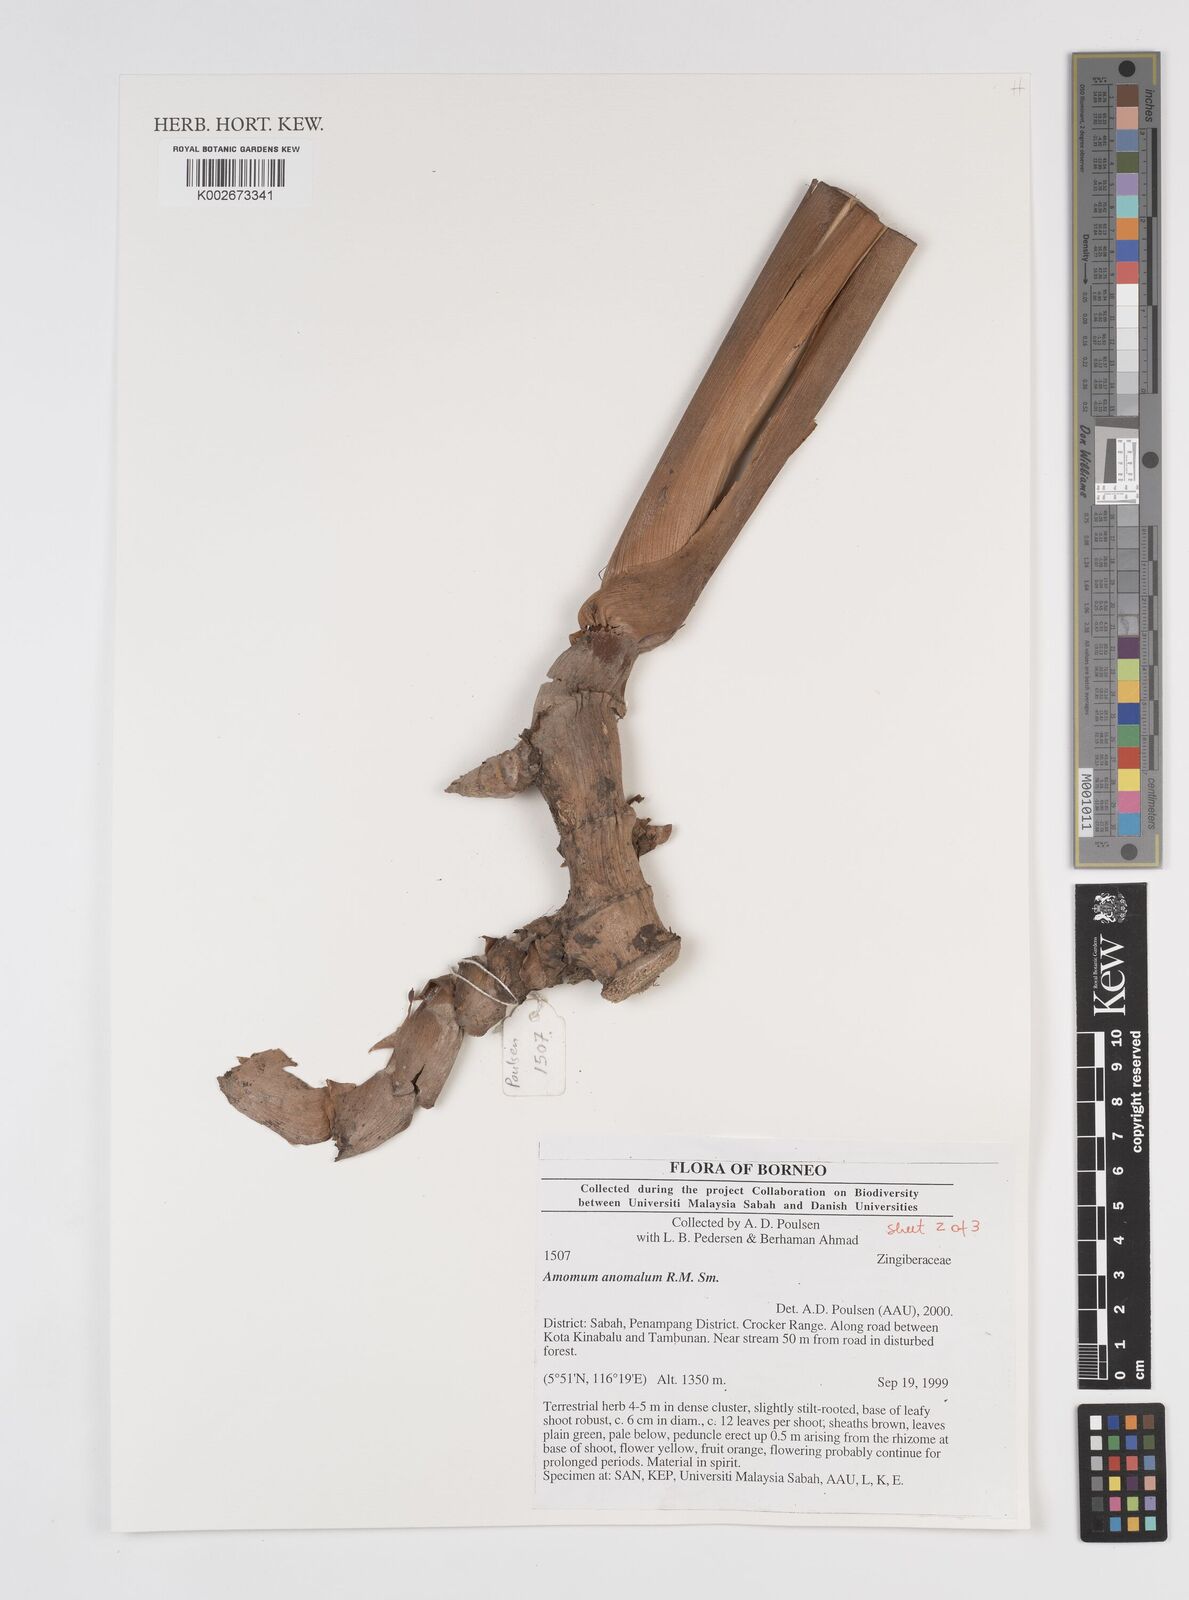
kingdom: Plantae
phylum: Tracheophyta
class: Liliopsida
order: Zingiberales
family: Zingiberaceae
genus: Sulettaria
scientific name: Sulettaria anomala
